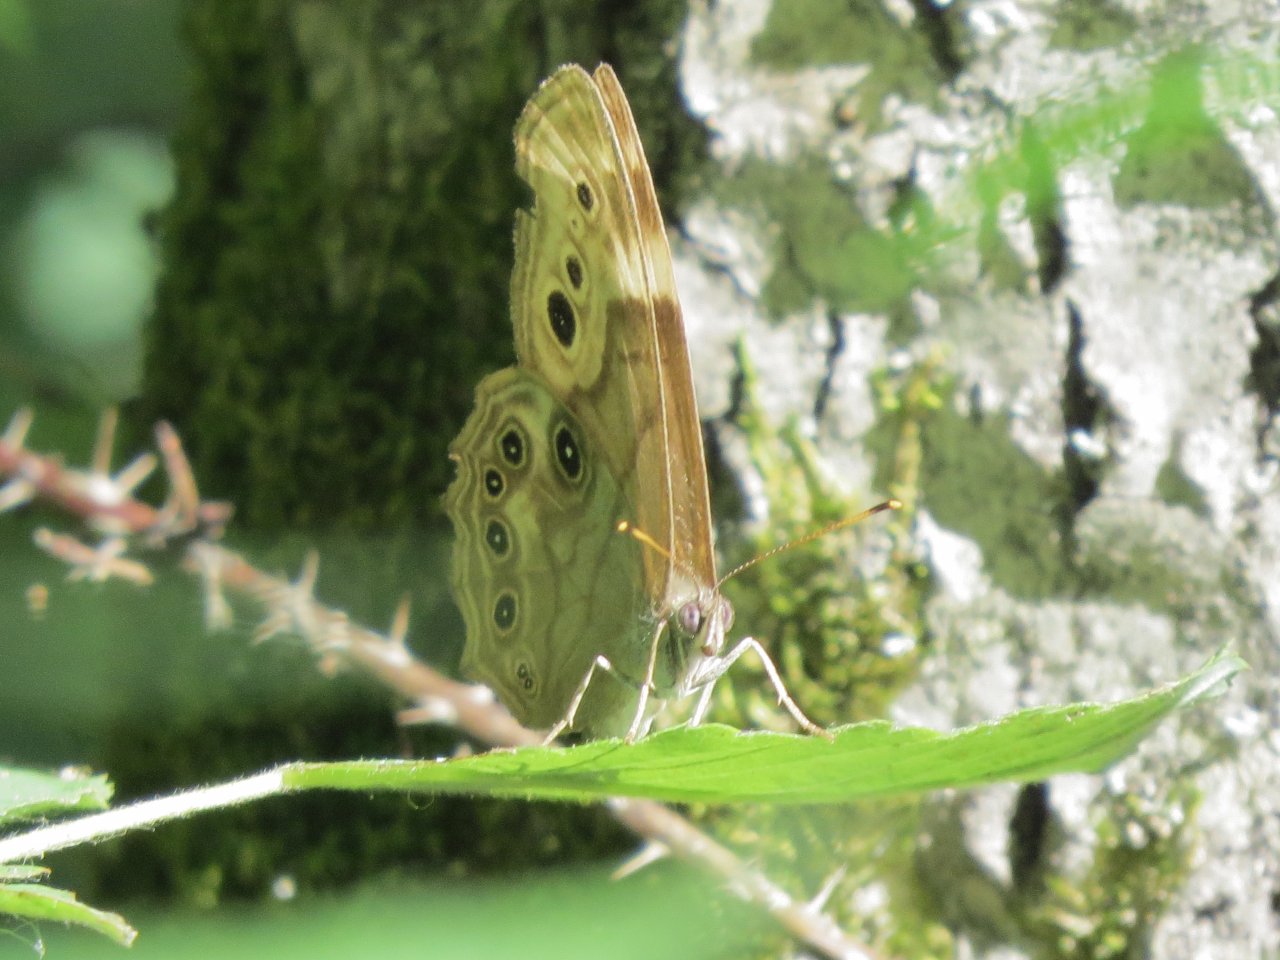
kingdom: Animalia
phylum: Arthropoda
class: Insecta
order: Lepidoptera
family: Nymphalidae
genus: Lethe
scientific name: Lethe anthedon
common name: Northern Pearly-Eye
